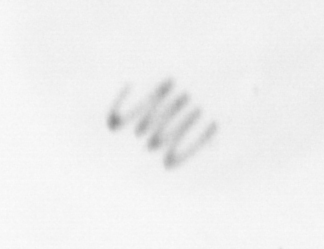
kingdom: Chromista
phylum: Ochrophyta
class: Bacillariophyceae
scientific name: Bacillariophyceae
